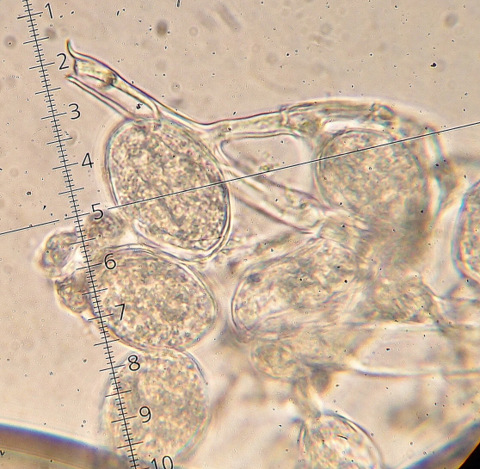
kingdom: Chromista
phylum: Oomycota
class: Peronosporea
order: Peronosporales
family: Peronosporaceae
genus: Hyaloperonospora
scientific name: Hyaloperonospora niessliana
